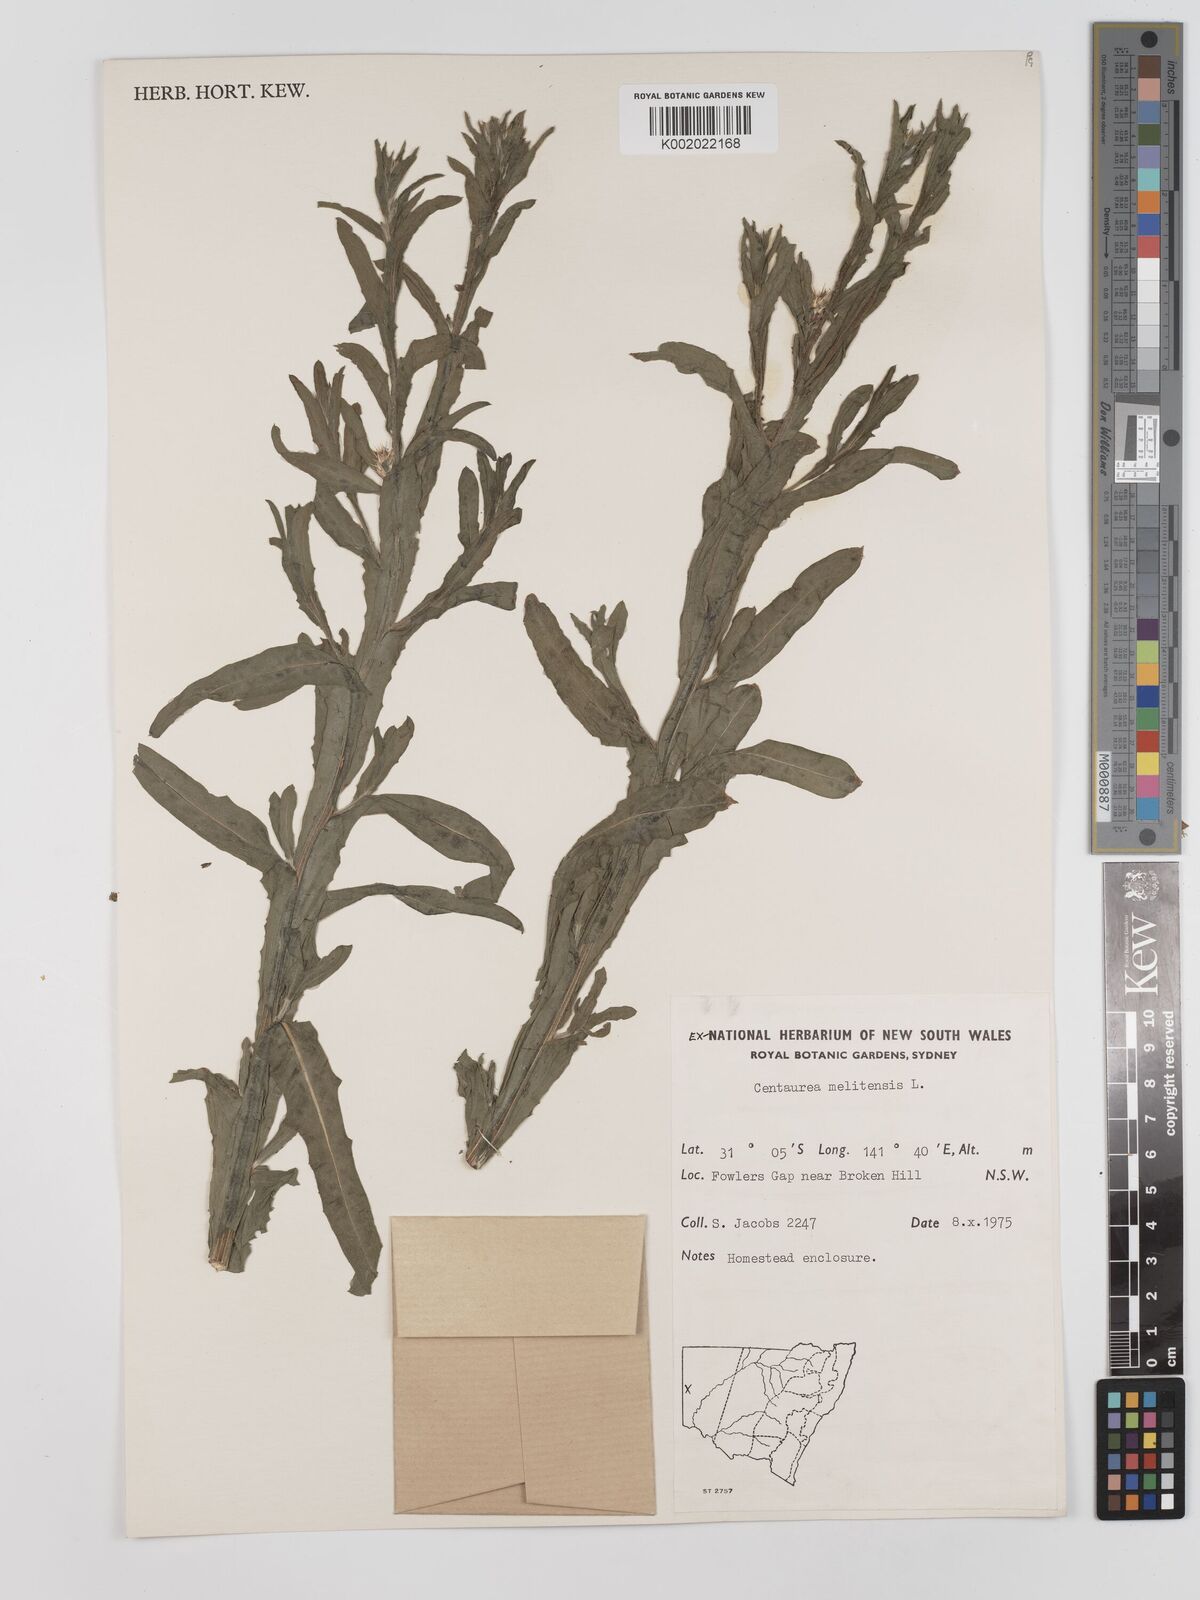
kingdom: Plantae
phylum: Tracheophyta
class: Magnoliopsida
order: Asterales
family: Asteraceae
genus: Centaurea
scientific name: Centaurea melitensis
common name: Maltese star-thistle
